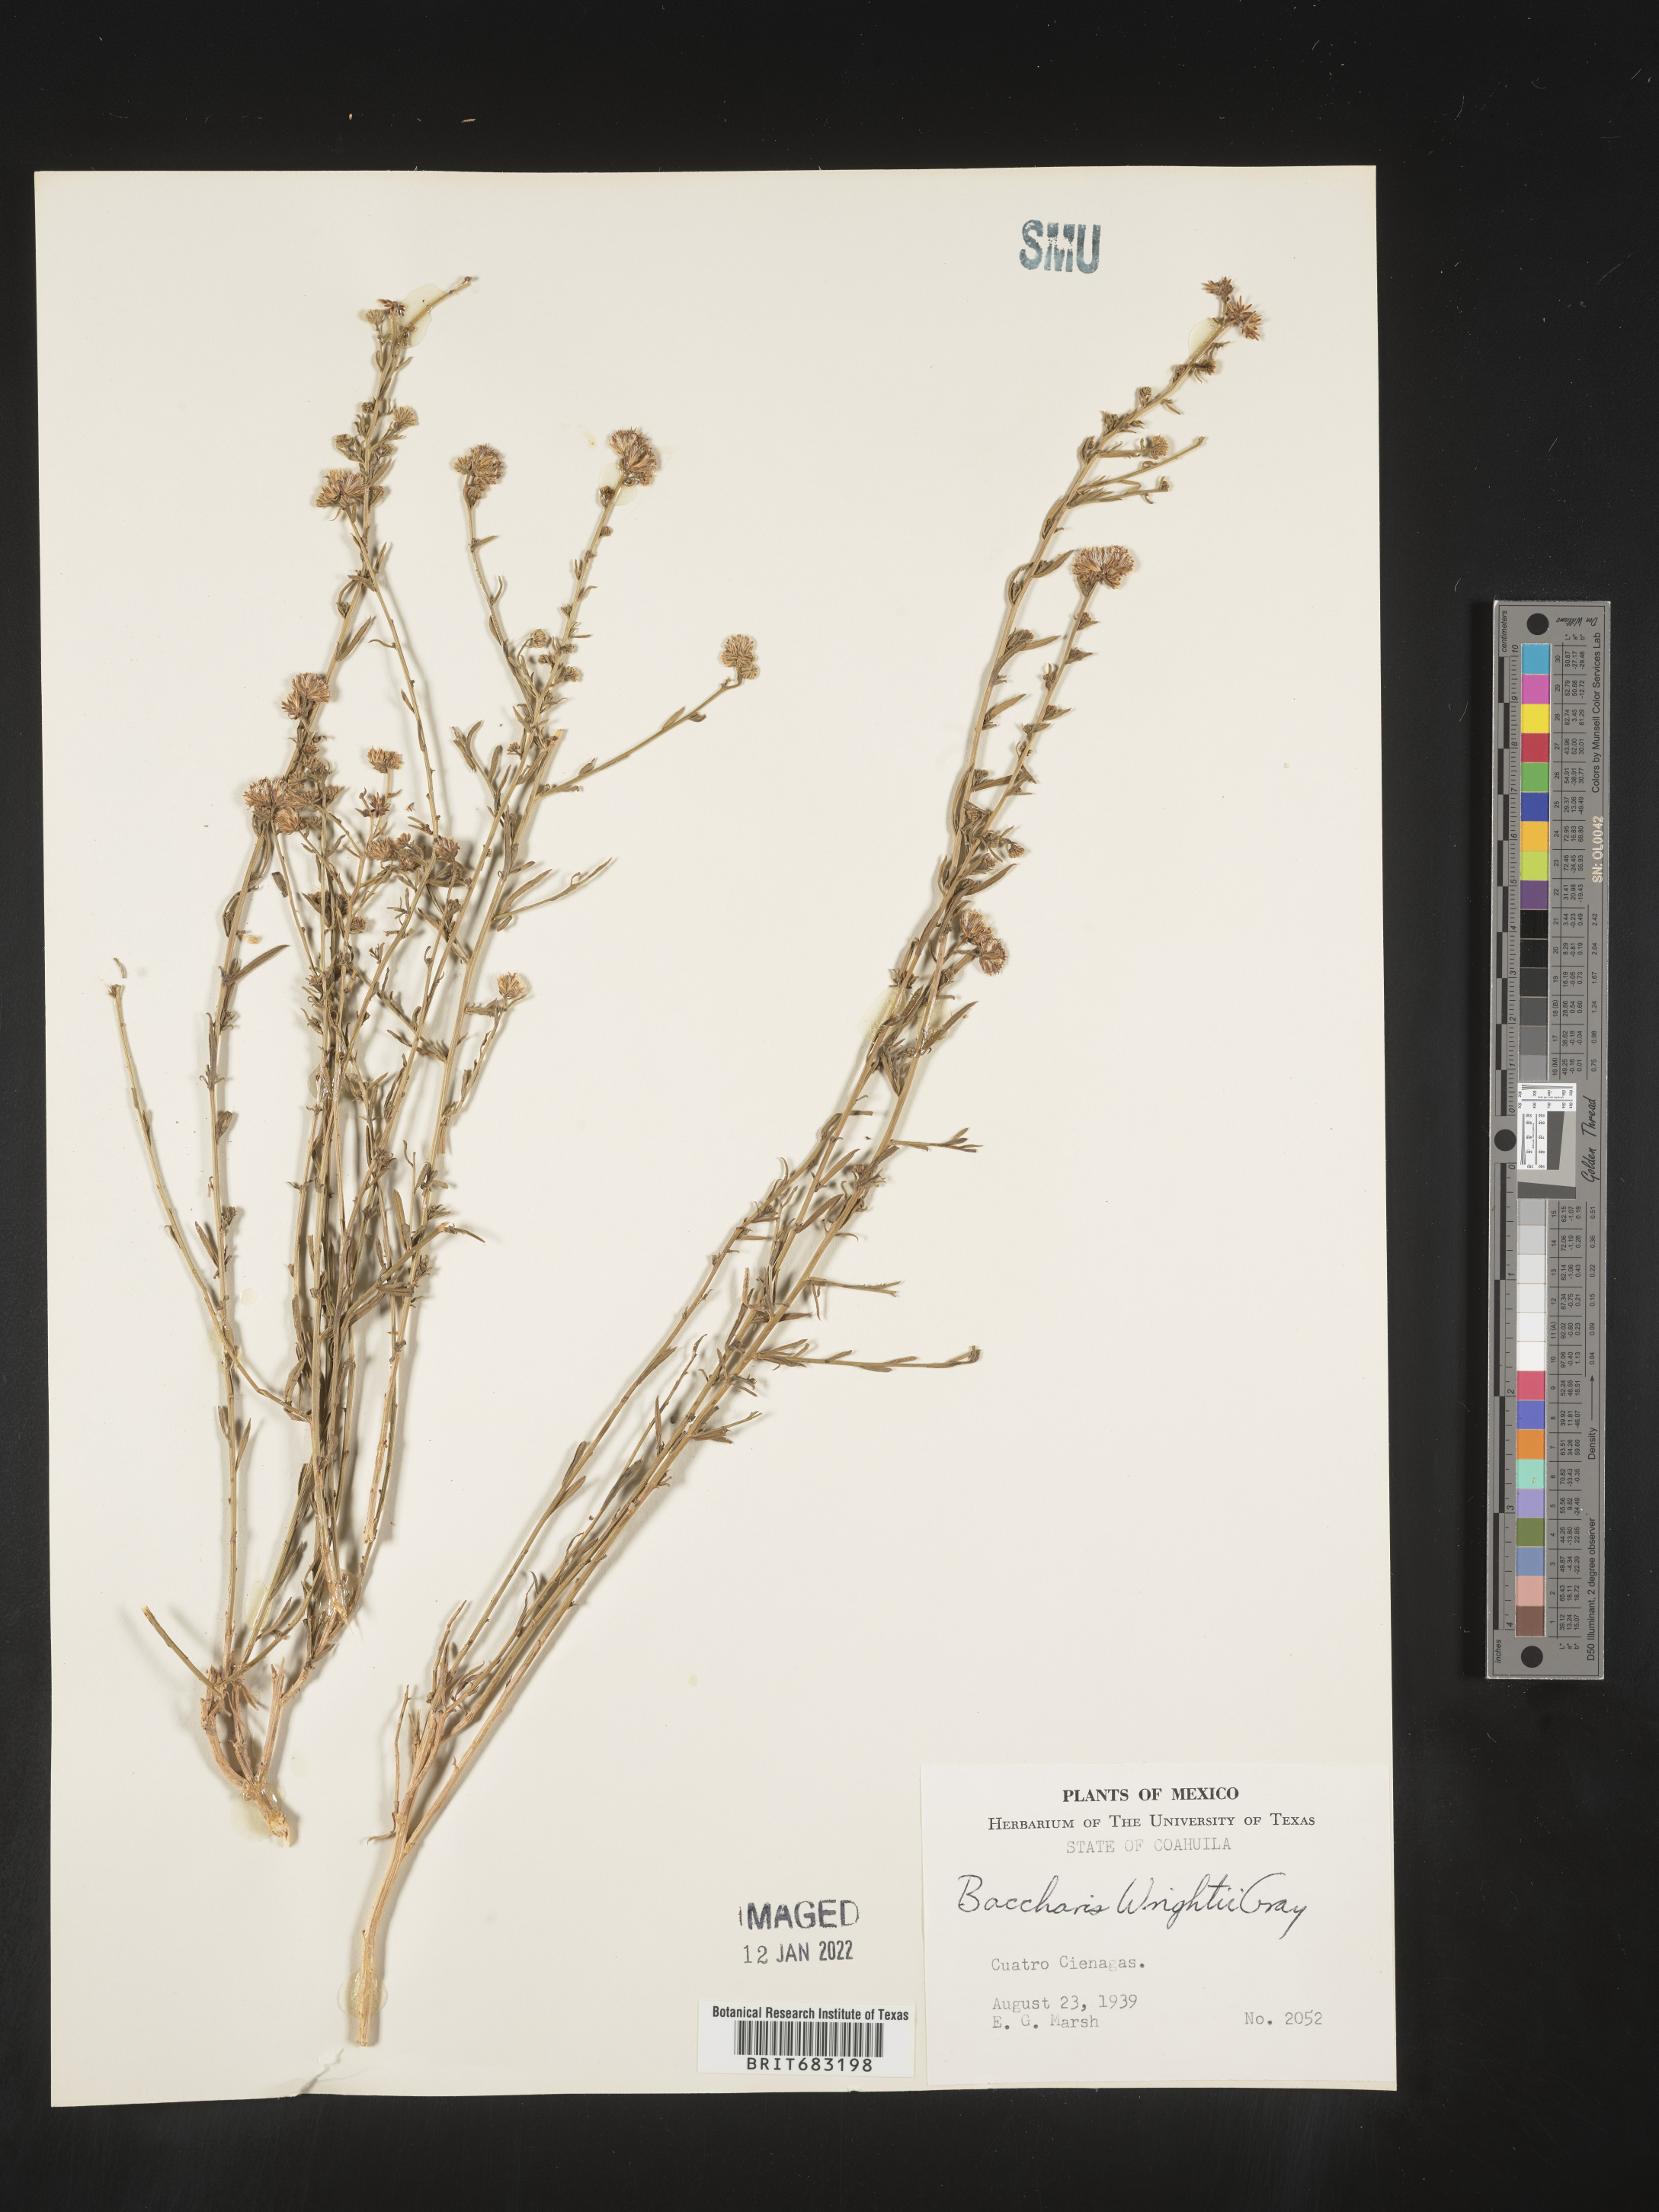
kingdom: Plantae
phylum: Tracheophyta
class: Magnoliopsida
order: Asterales
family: Asteraceae
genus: Baccharis
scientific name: Baccharis wrightii
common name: Wright's baccharis
